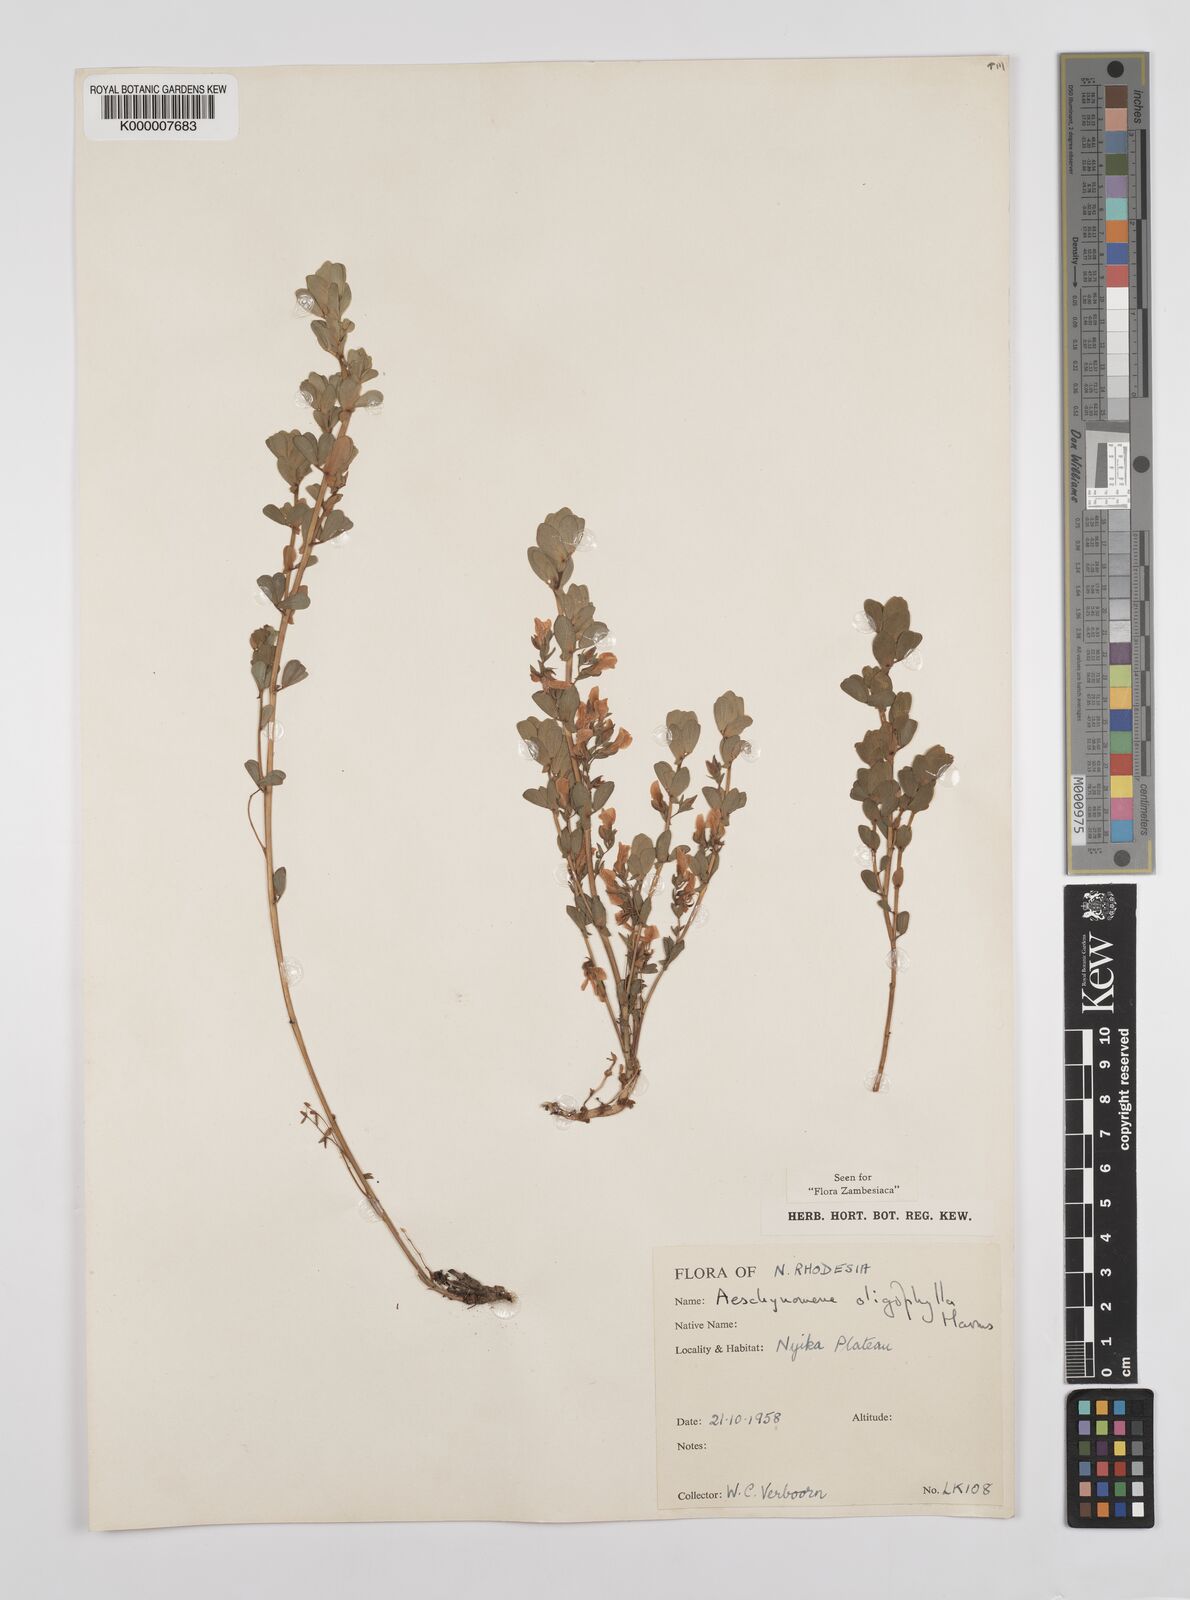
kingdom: Plantae
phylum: Tracheophyta
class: Magnoliopsida
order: Fabales
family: Fabaceae
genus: Aeschynomene
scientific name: Aeschynomene oligophylla
